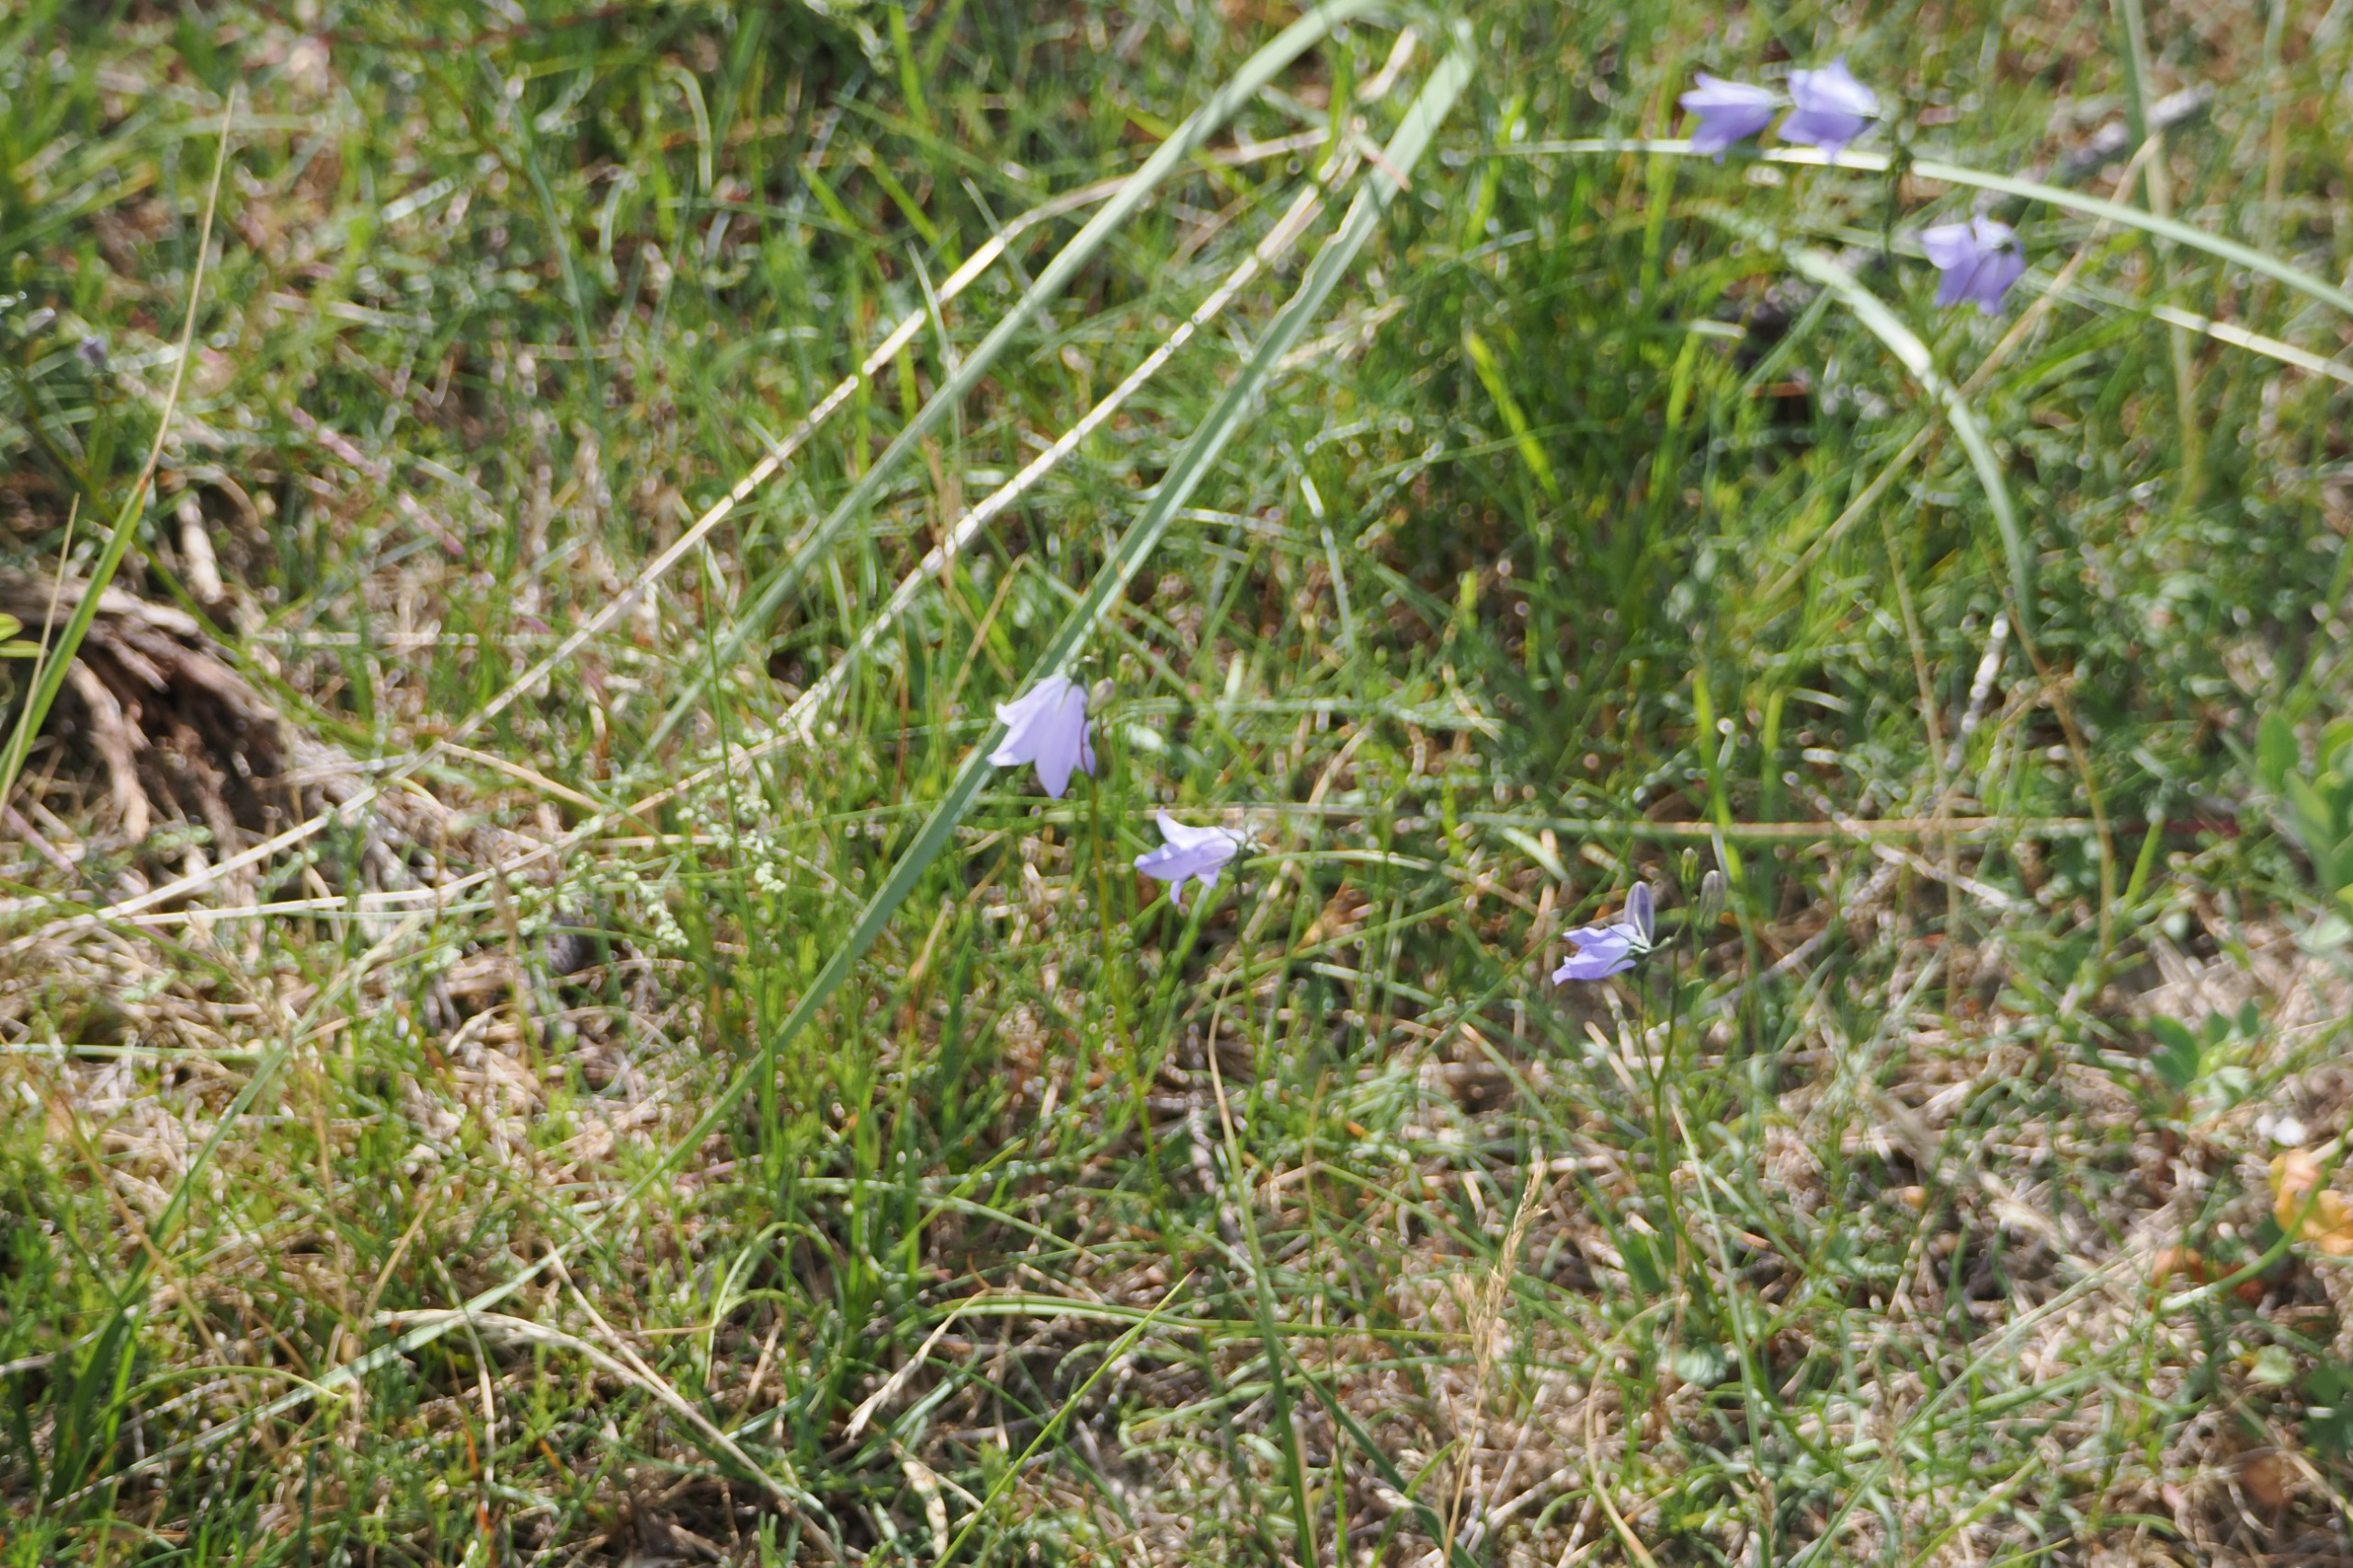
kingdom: Plantae
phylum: Tracheophyta
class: Magnoliopsida
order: Asterales
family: Campanulaceae
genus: Campanula
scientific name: Campanula rotundifolia
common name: Liden klokke
